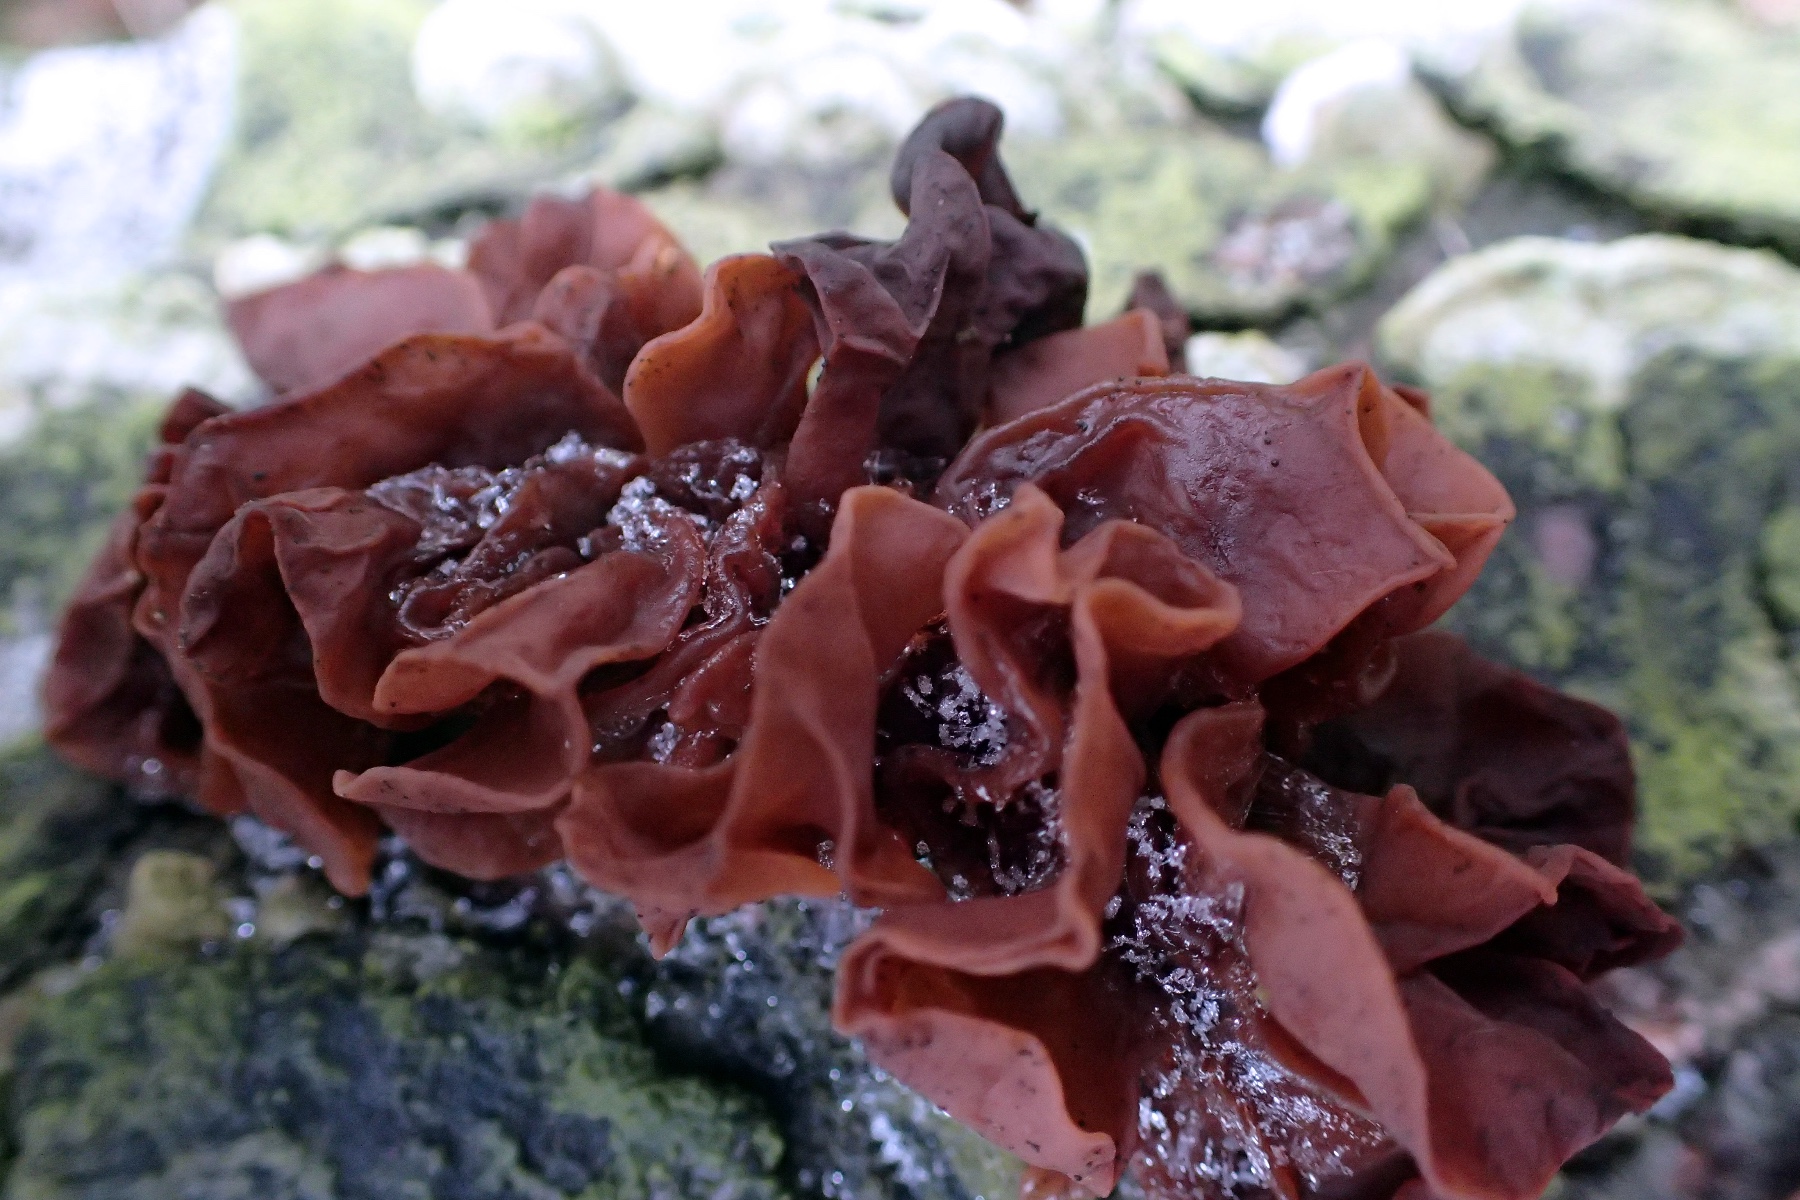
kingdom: Fungi
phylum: Basidiomycota
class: Tremellomycetes
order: Tremellales
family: Tremellaceae
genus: Phaeotremella
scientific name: Phaeotremella foliacea
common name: brun bævresvamp
